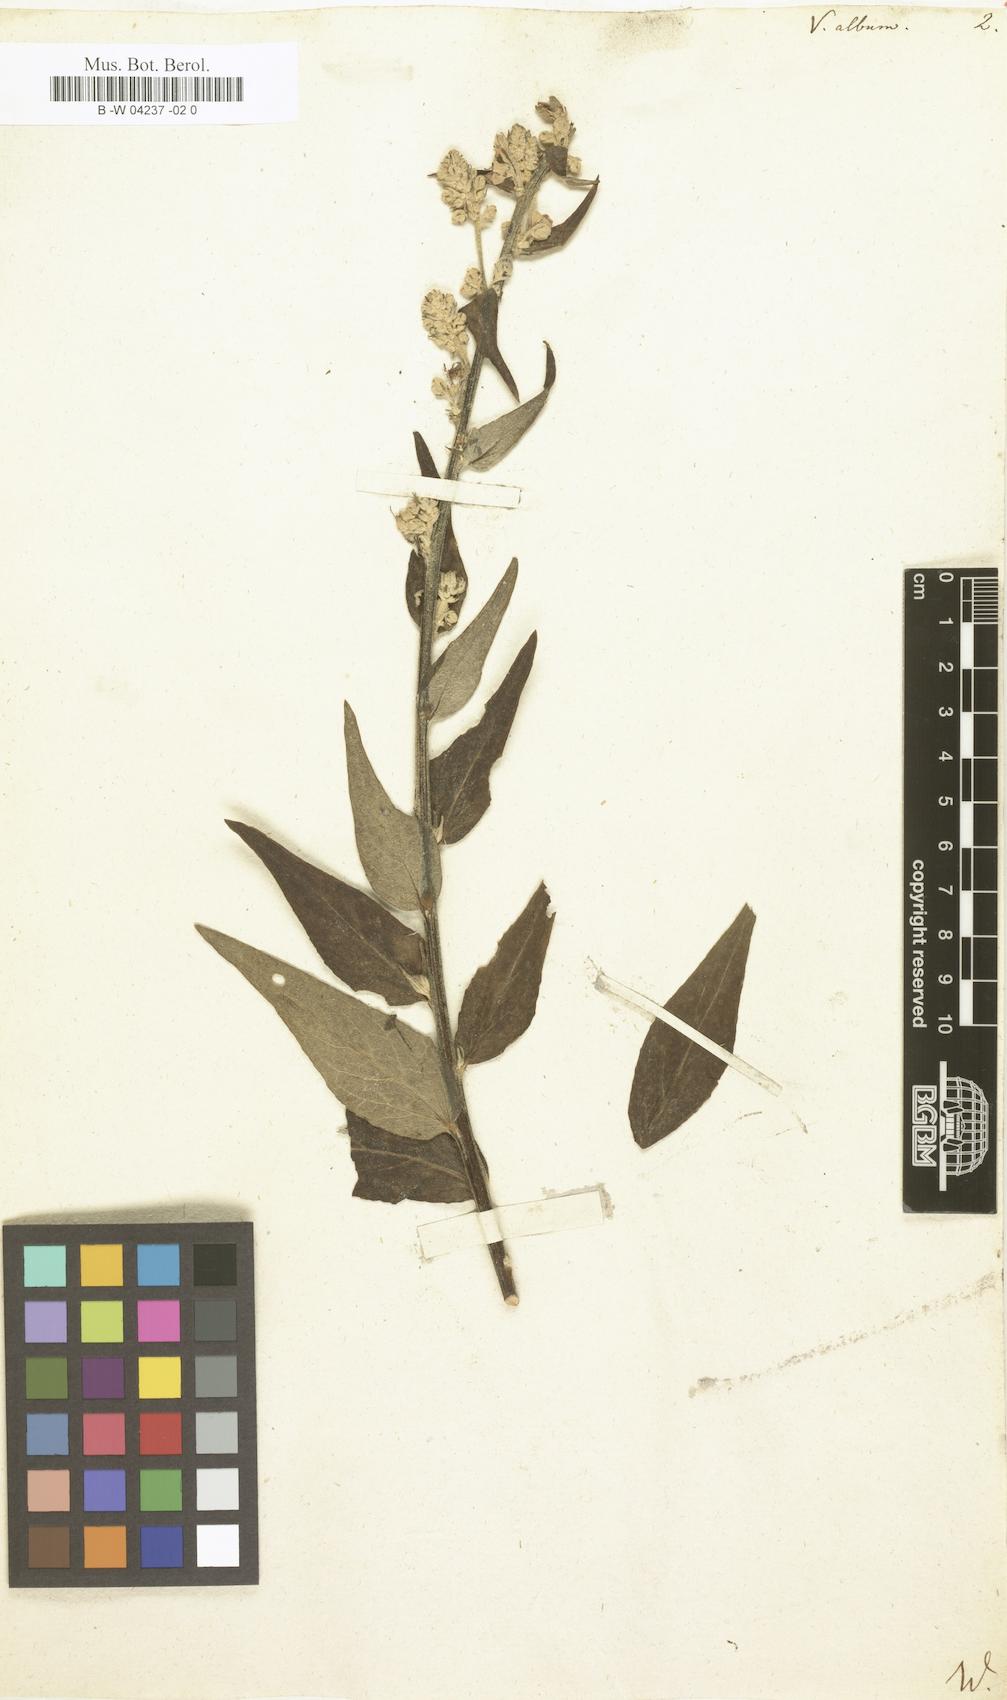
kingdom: Plantae
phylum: Tracheophyta
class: Magnoliopsida
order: Lamiales
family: Scrophulariaceae
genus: Verbascum
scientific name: Verbascum lychnitis
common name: White mullein
